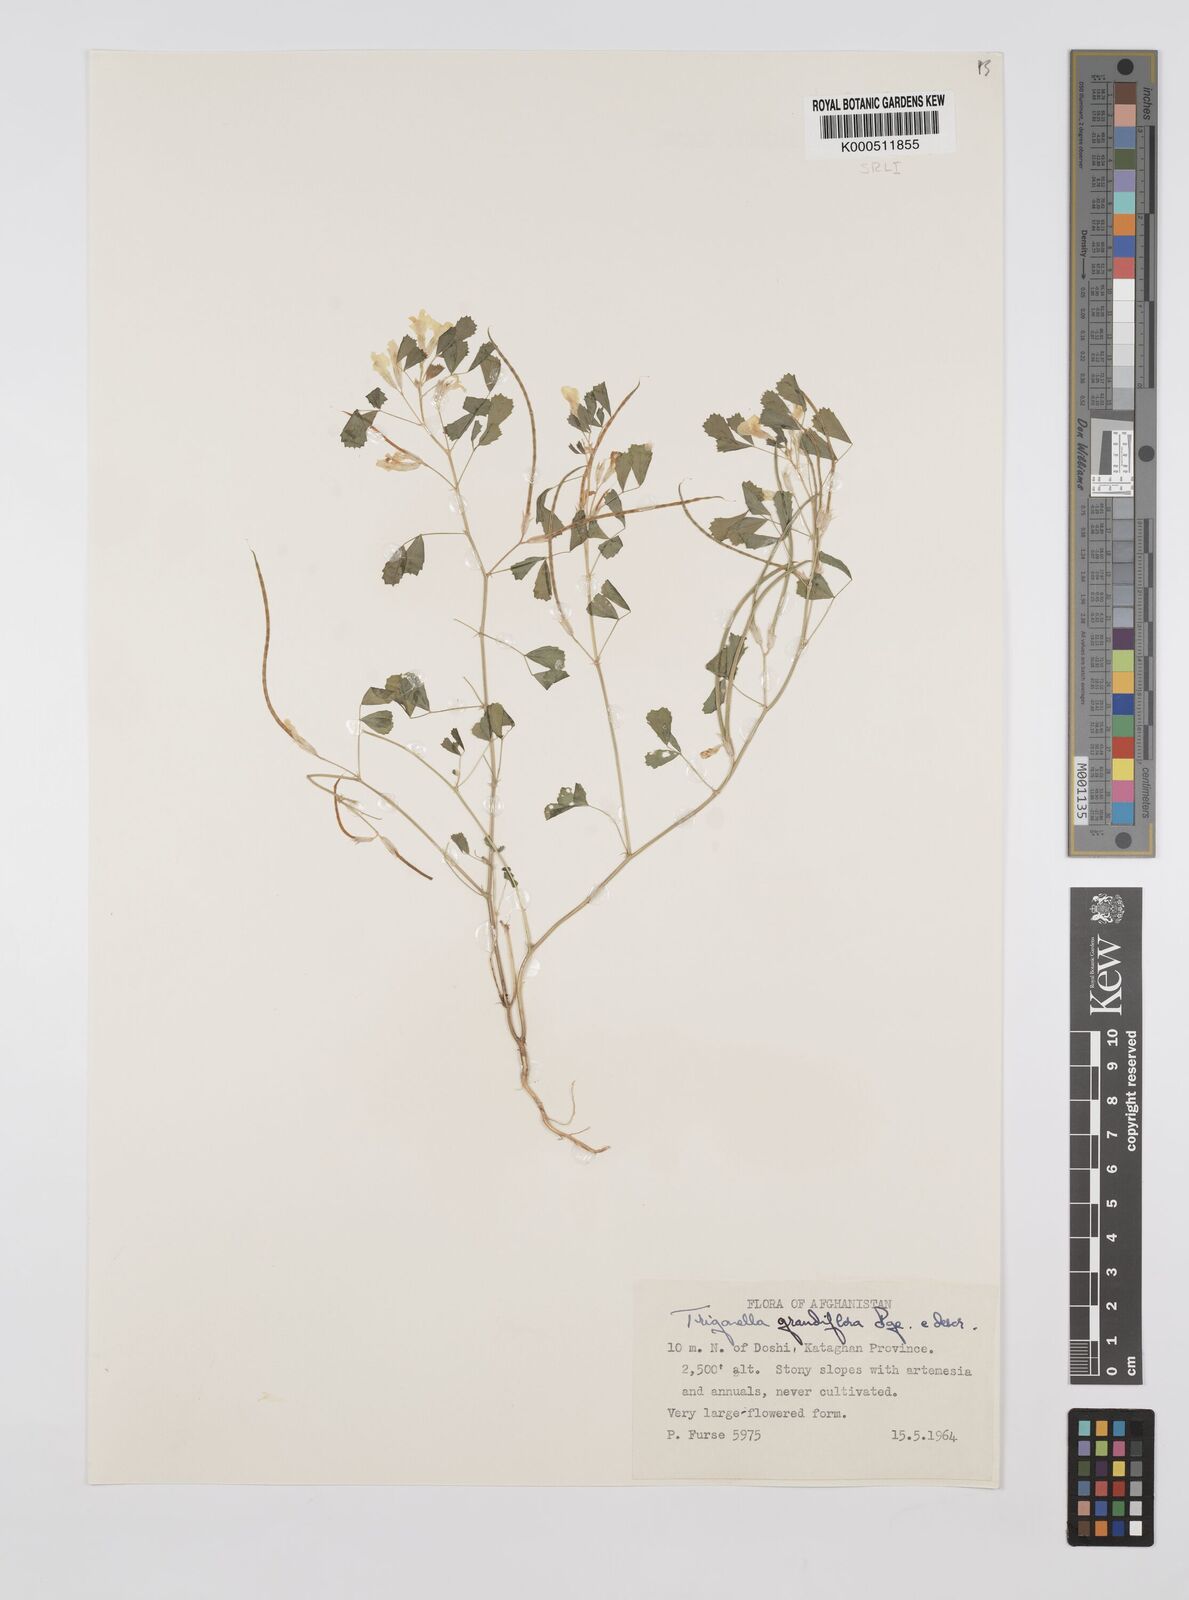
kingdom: Plantae
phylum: Tracheophyta
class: Magnoliopsida
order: Fabales
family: Fabaceae
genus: Trigonella
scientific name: Trigonella grandiflora
